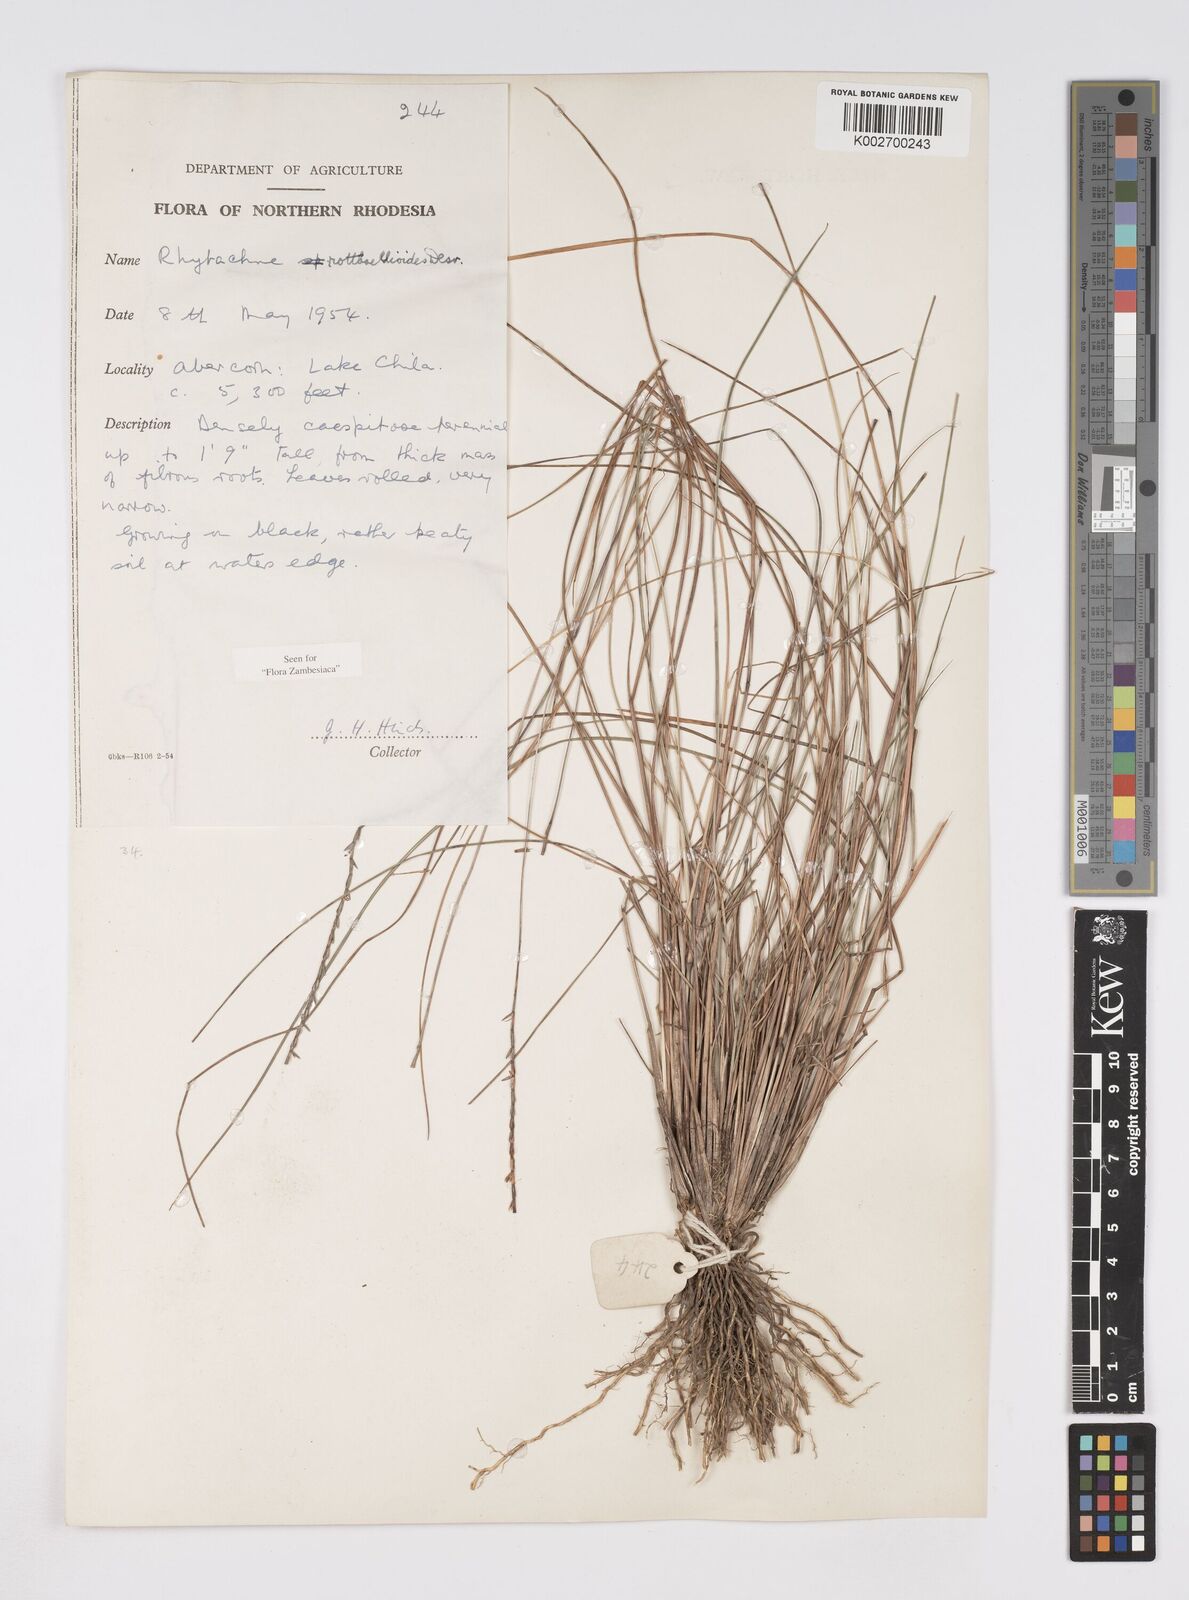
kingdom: Plantae
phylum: Tracheophyta
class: Liliopsida
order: Poales
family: Poaceae
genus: Rhytachne
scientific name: Rhytachne rottboellioides
